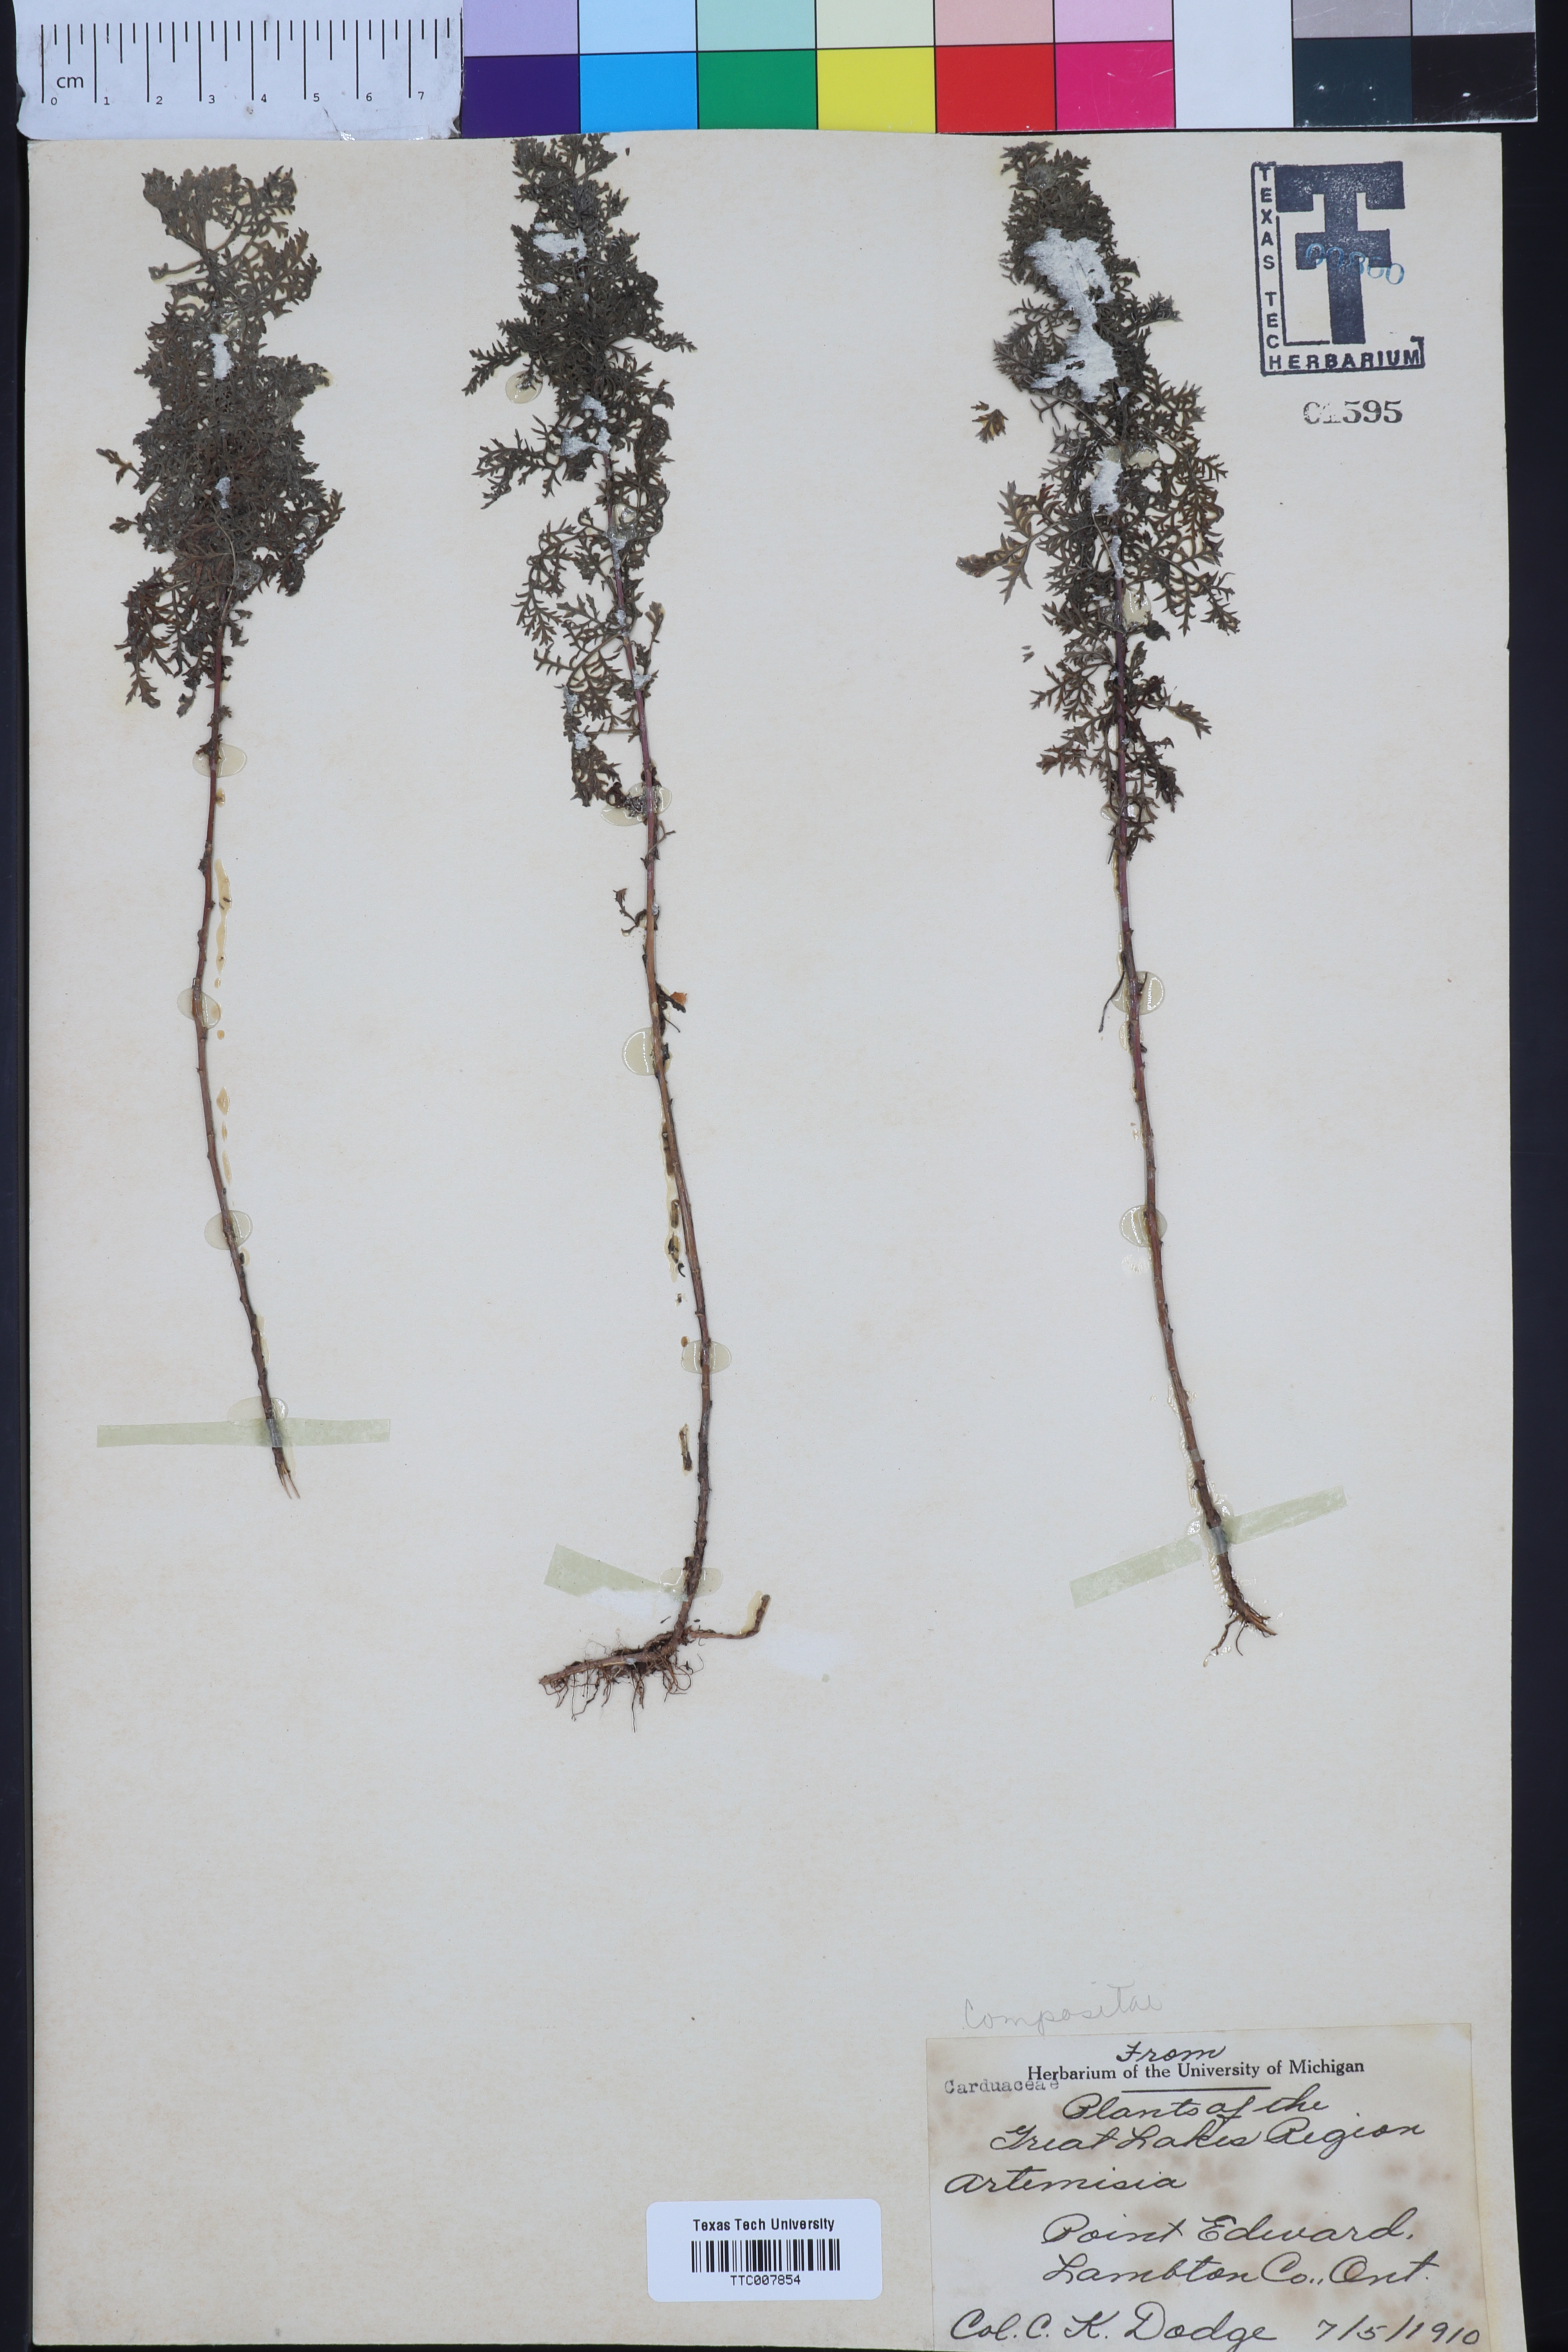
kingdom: Plantae
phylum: Tracheophyta
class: Magnoliopsida
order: Asterales
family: Asteraceae
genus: Artemisia
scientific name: Artemisia
